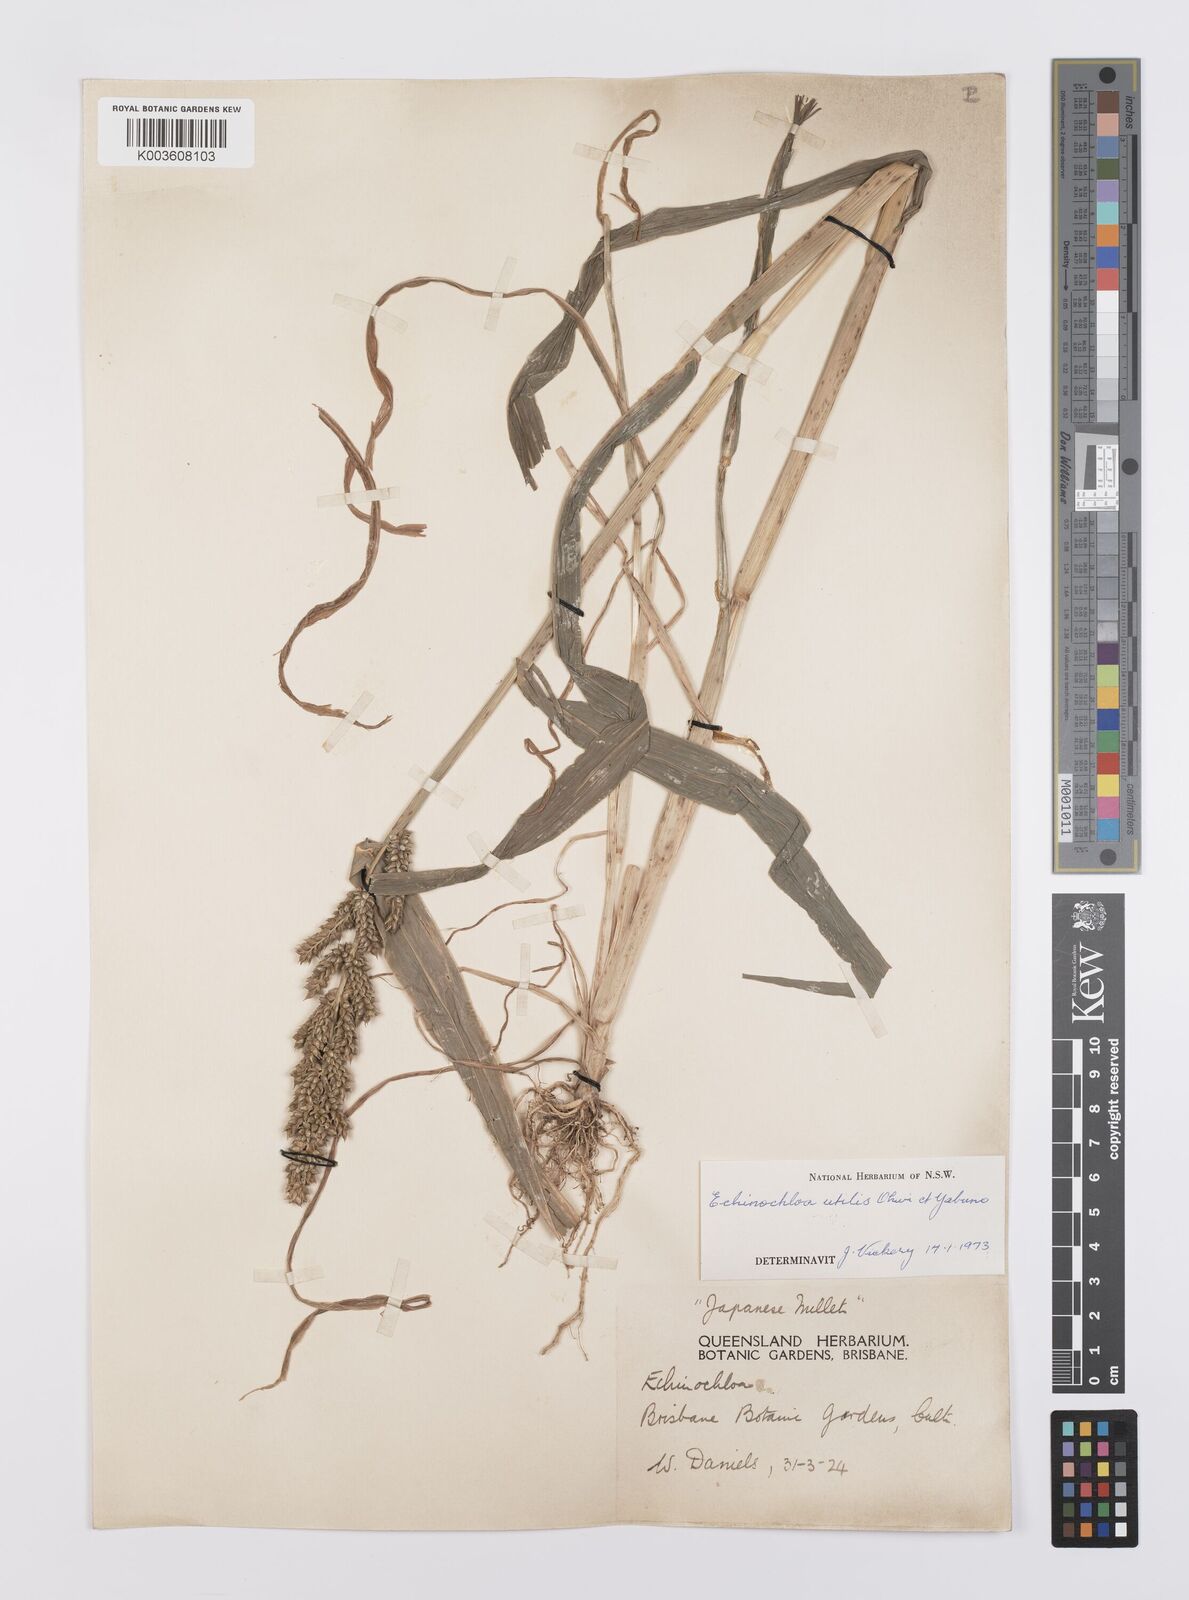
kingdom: Plantae
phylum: Tracheophyta
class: Liliopsida
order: Poales
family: Poaceae
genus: Echinochloa
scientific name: Echinochloa crus-galli
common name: Cockspur
